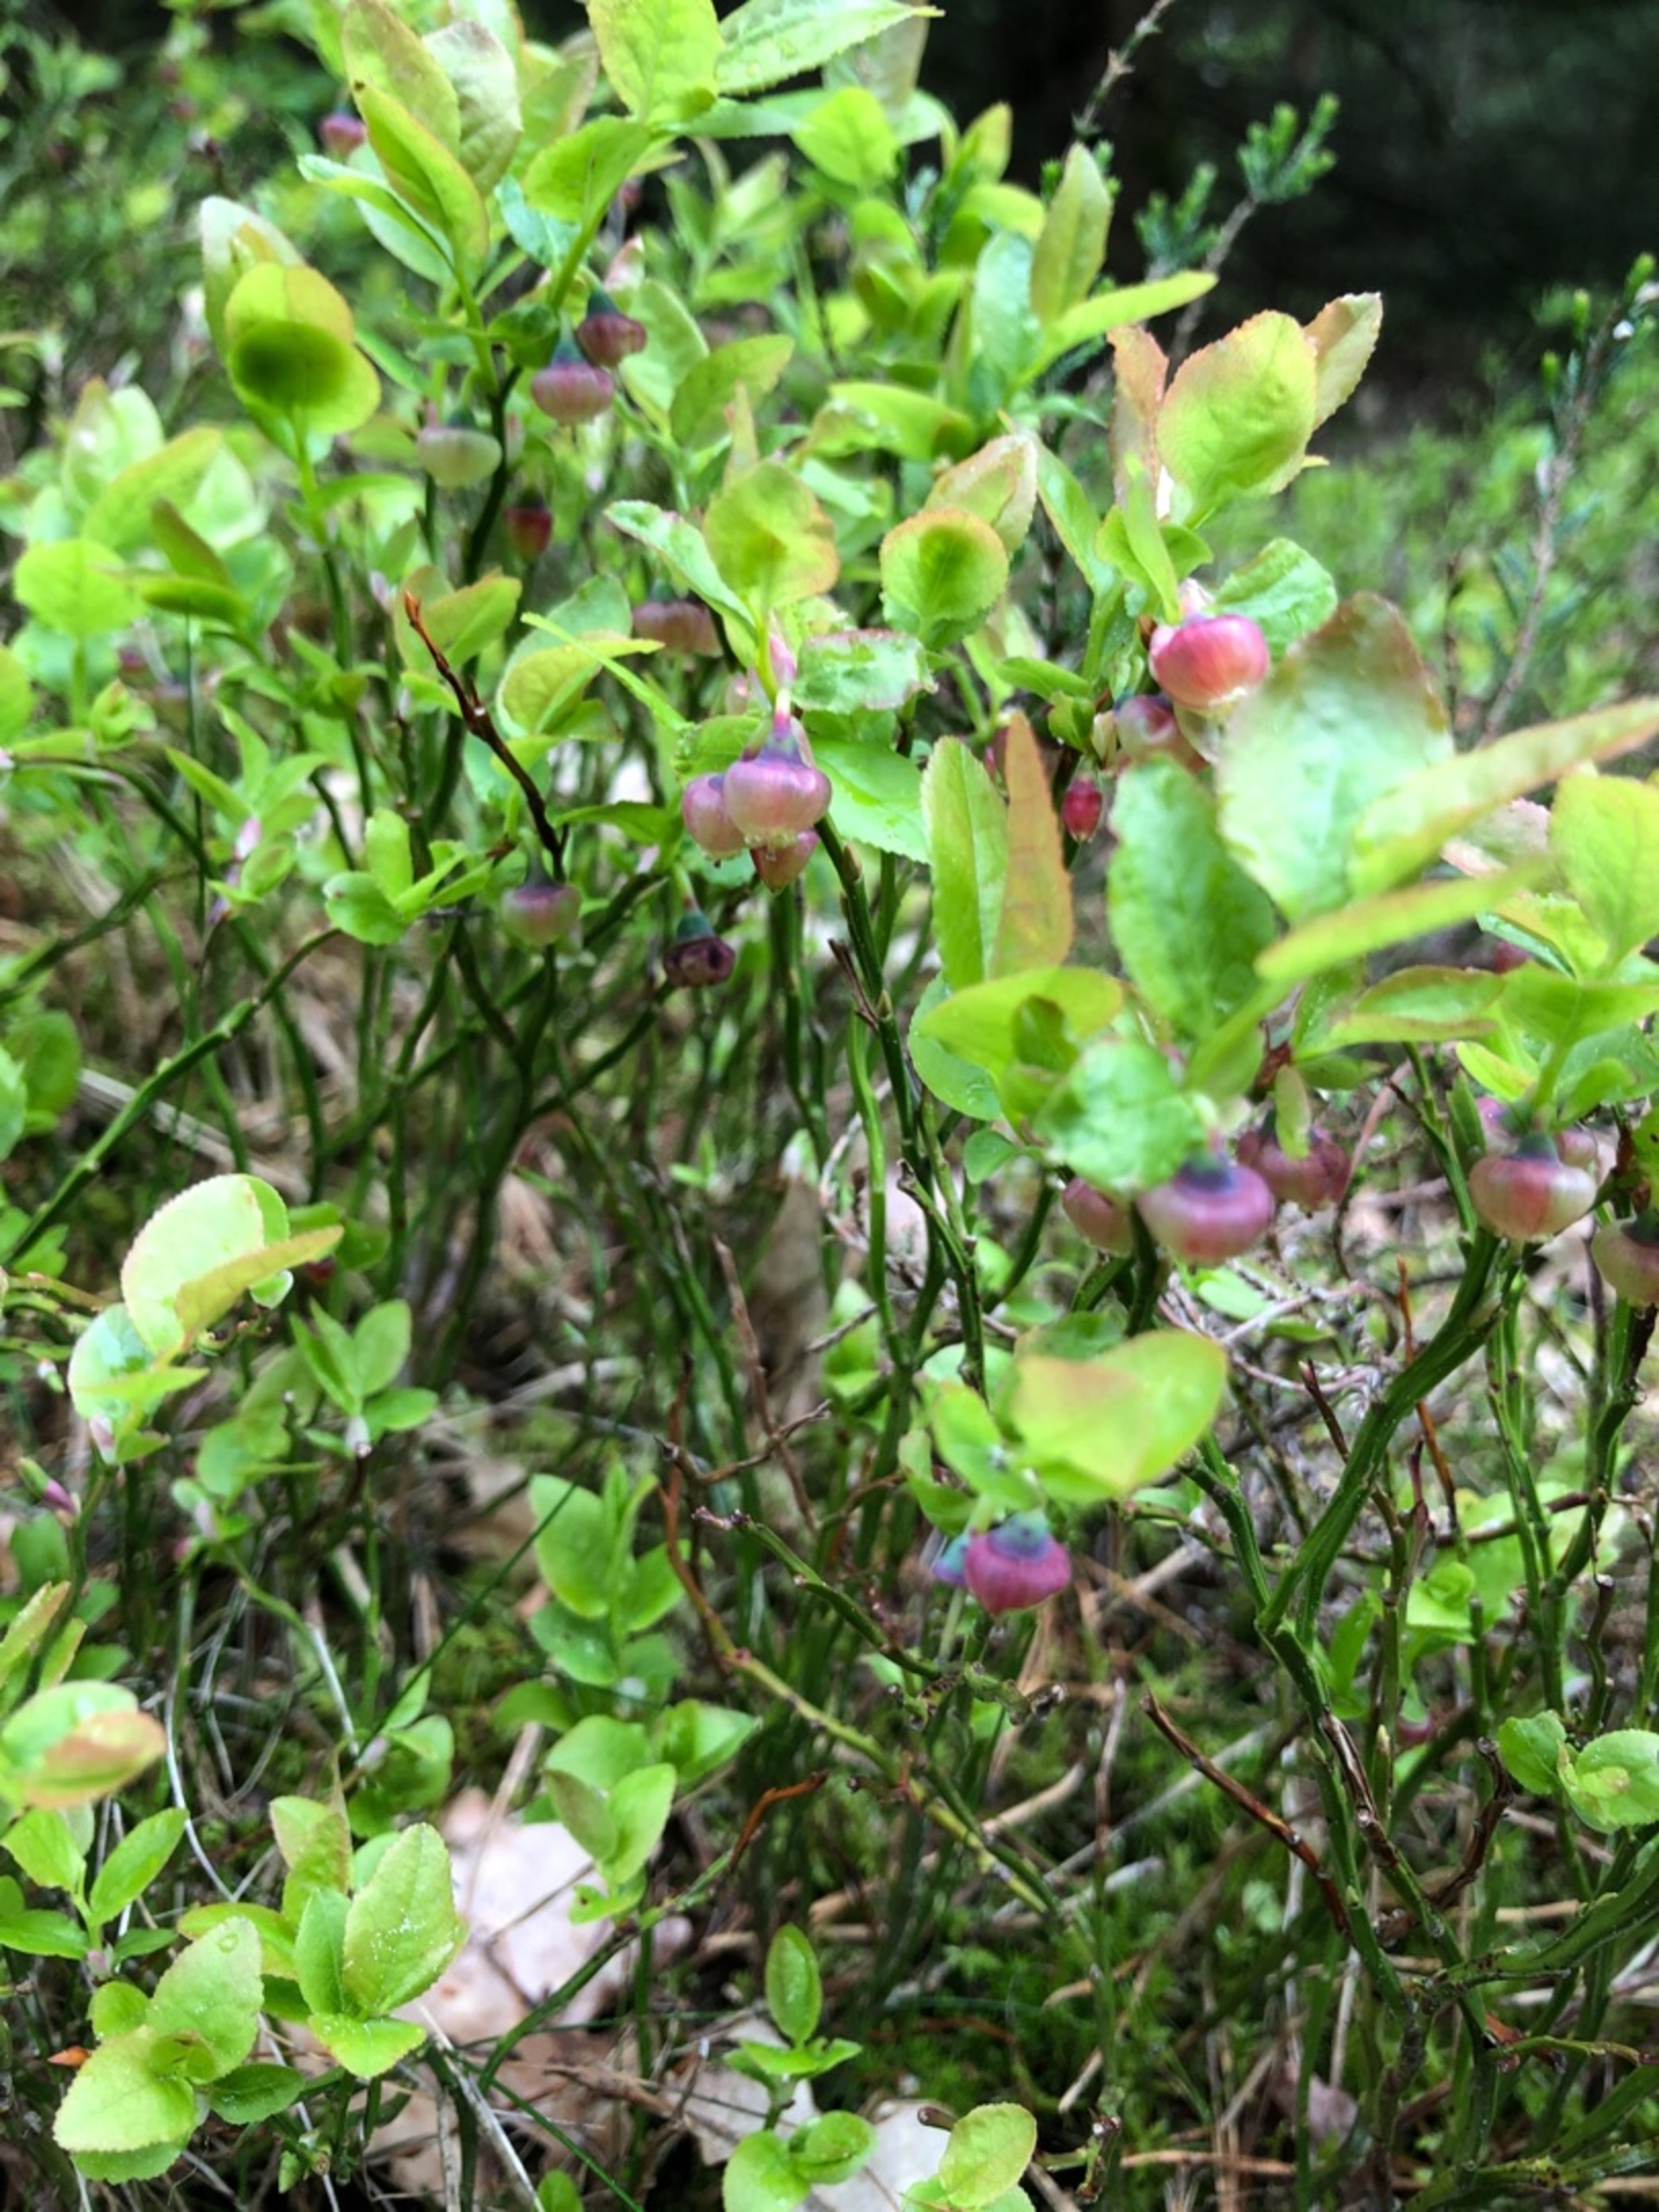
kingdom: Plantae
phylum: Tracheophyta
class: Magnoliopsida
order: Ericales
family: Ericaceae
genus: Vaccinium
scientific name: Vaccinium myrtillus
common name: Blåbær
